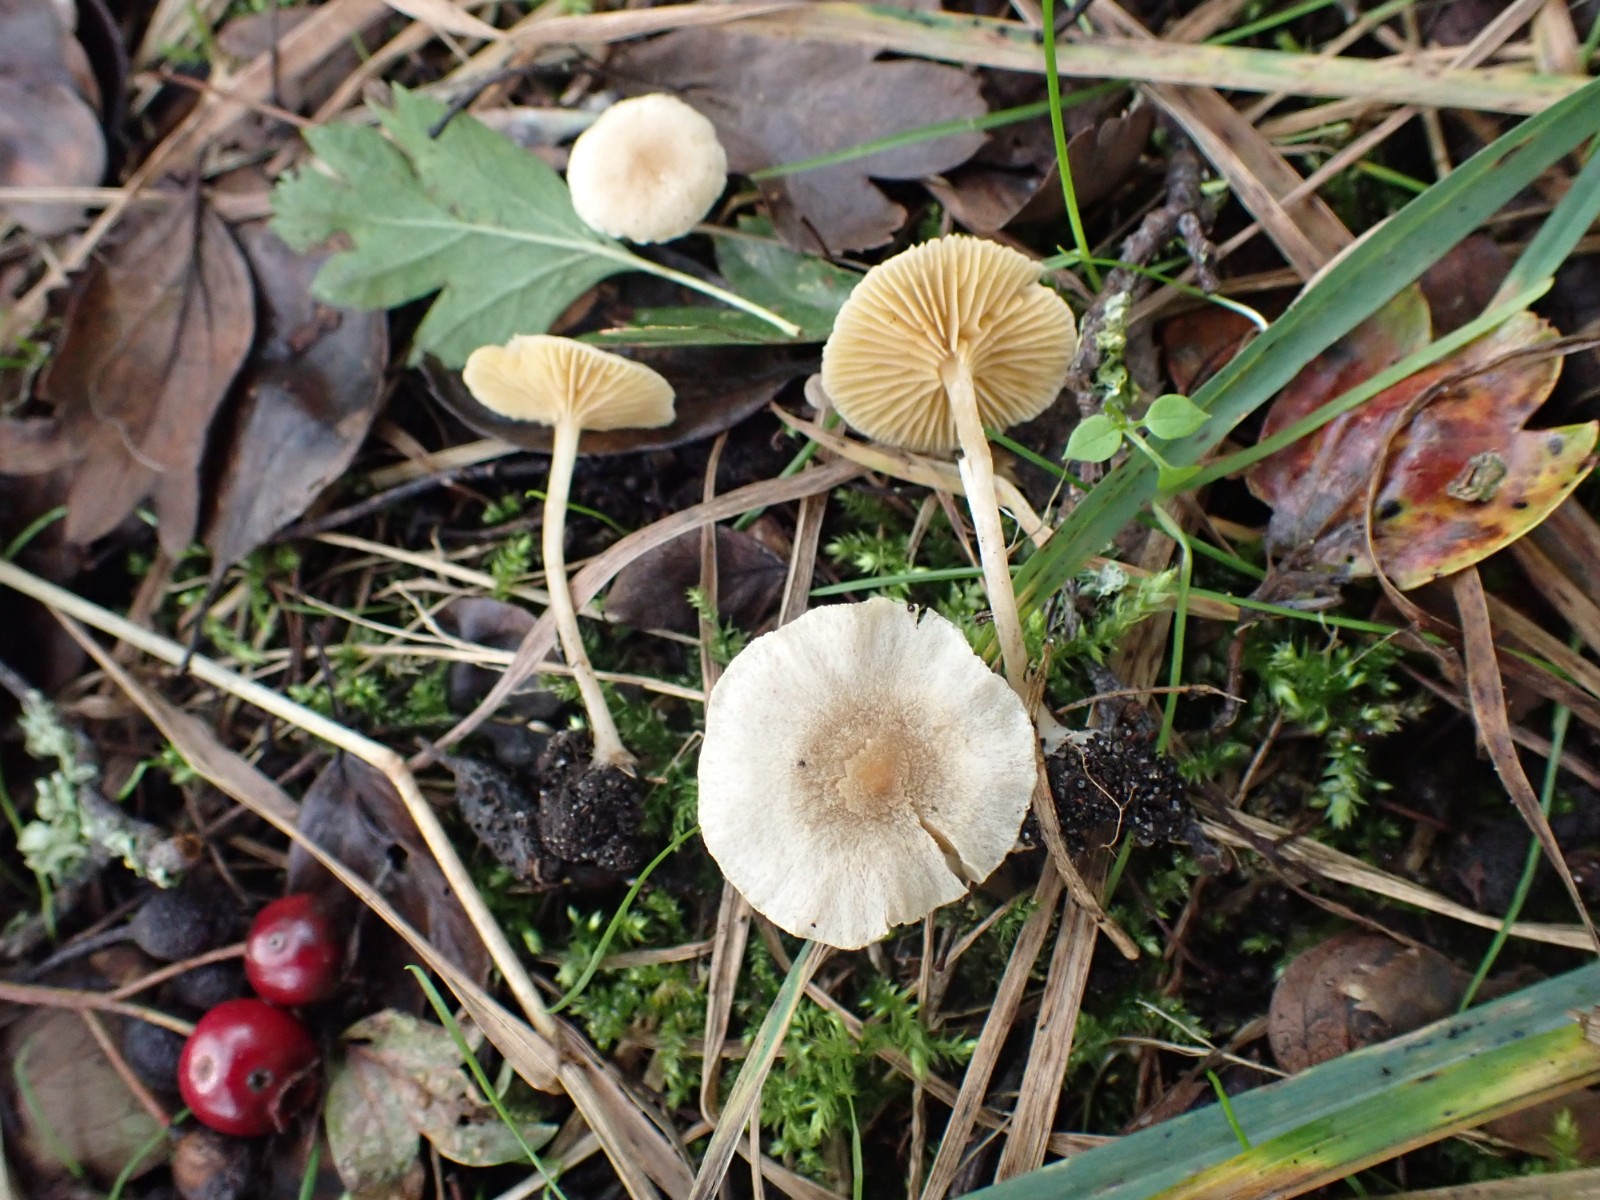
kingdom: Fungi
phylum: Basidiomycota
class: Agaricomycetes
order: Agaricales
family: Tubariaceae
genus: Tubaria
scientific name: Tubaria dispersa
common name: tjørne-fnughat
